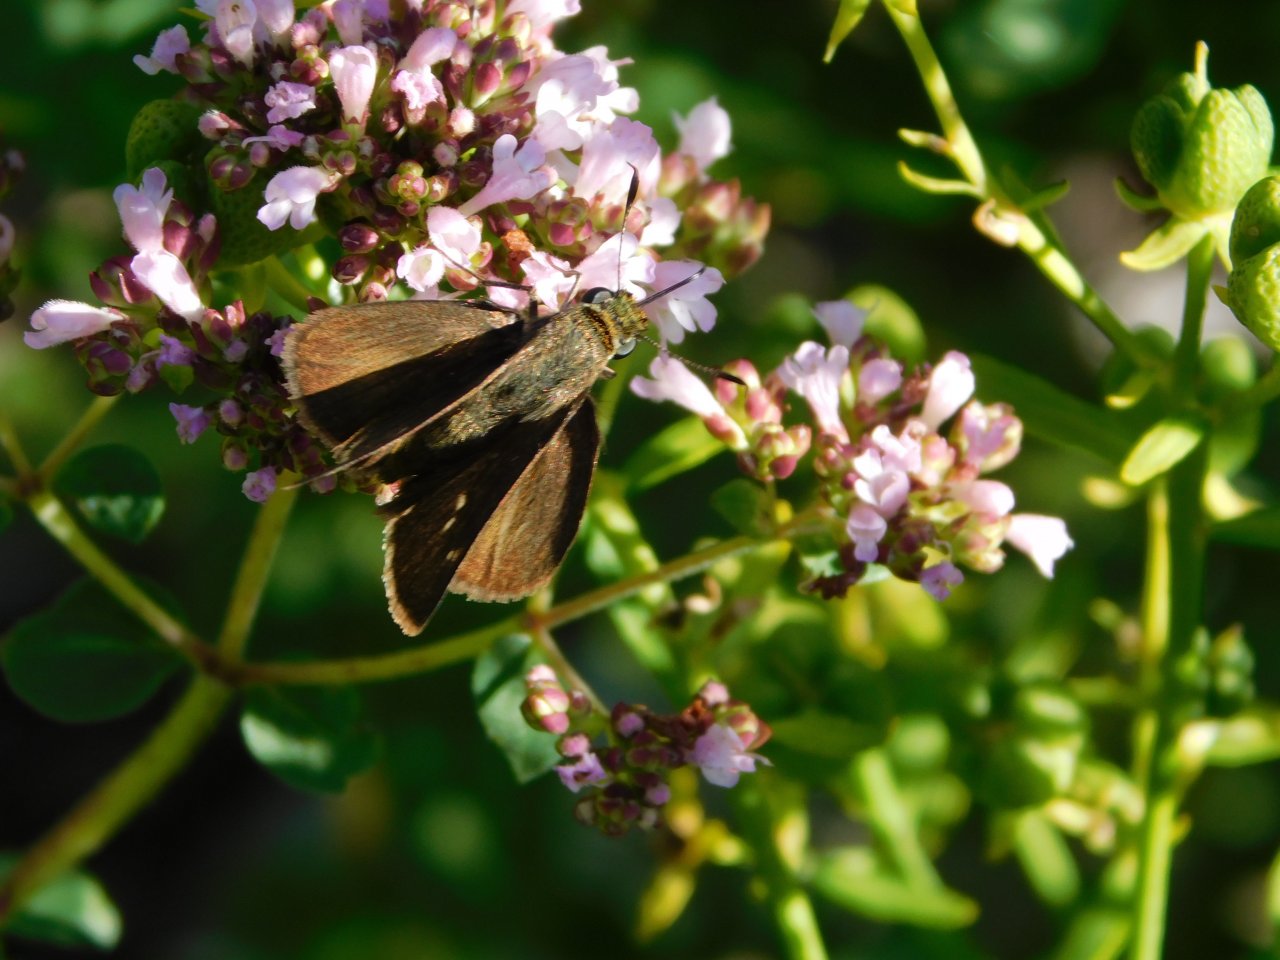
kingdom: Animalia
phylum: Arthropoda
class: Insecta
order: Lepidoptera
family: Hesperiidae
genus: Euphyes
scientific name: Euphyes vestris
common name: Dun Skipper
